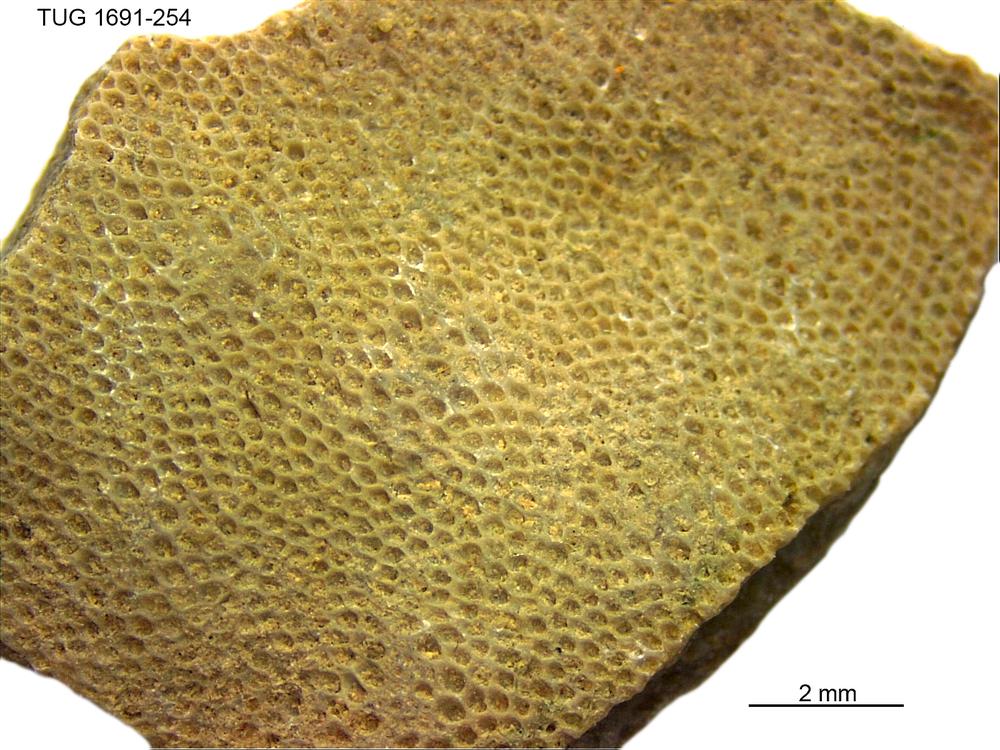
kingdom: Animalia
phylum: Bryozoa
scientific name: Bryozoa
